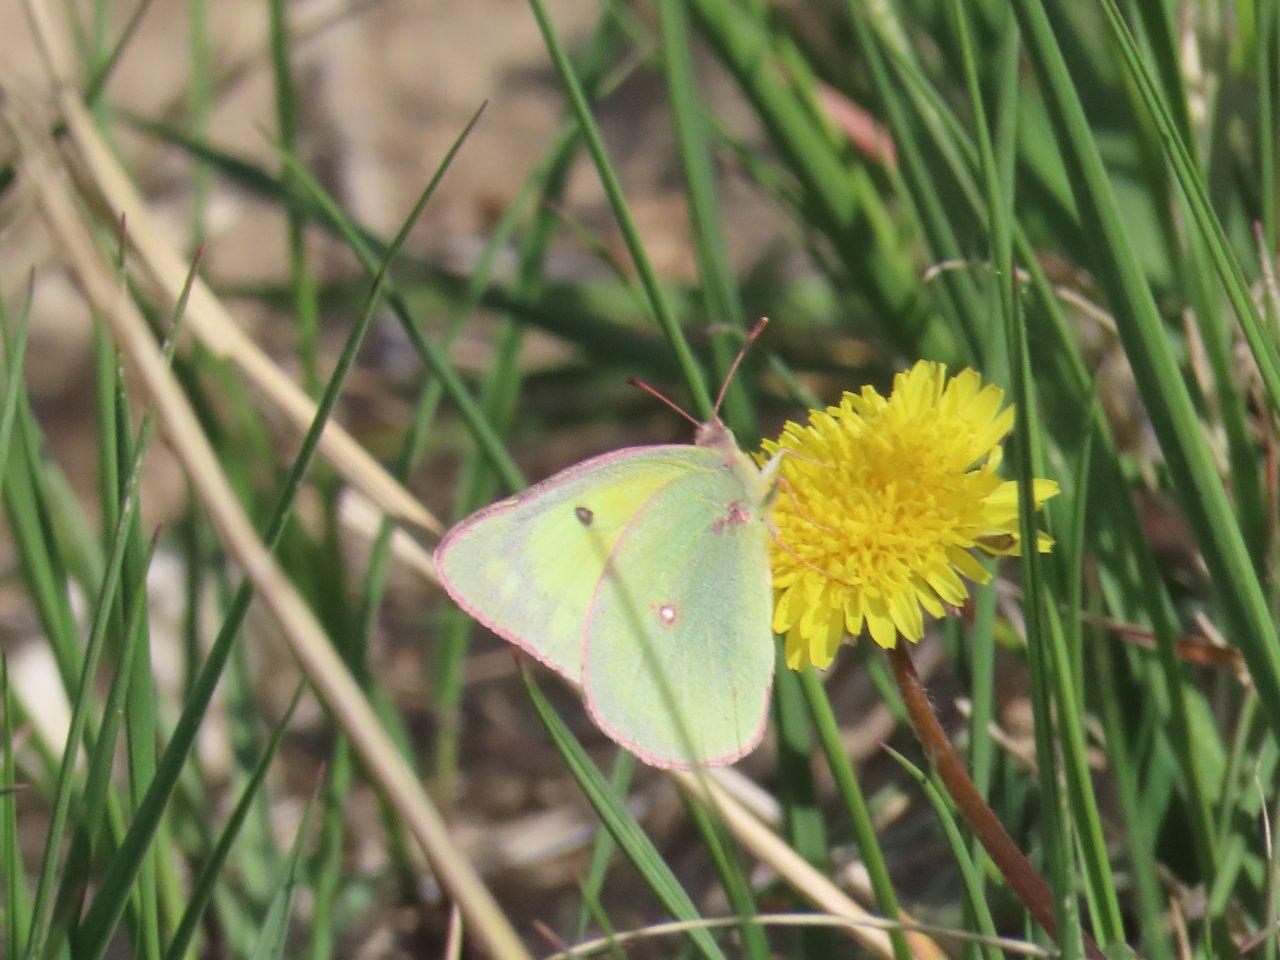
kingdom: Animalia
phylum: Arthropoda
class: Insecta
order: Lepidoptera
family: Pieridae
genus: Colias
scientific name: Colias interior
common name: Pink-edged Sulphur
